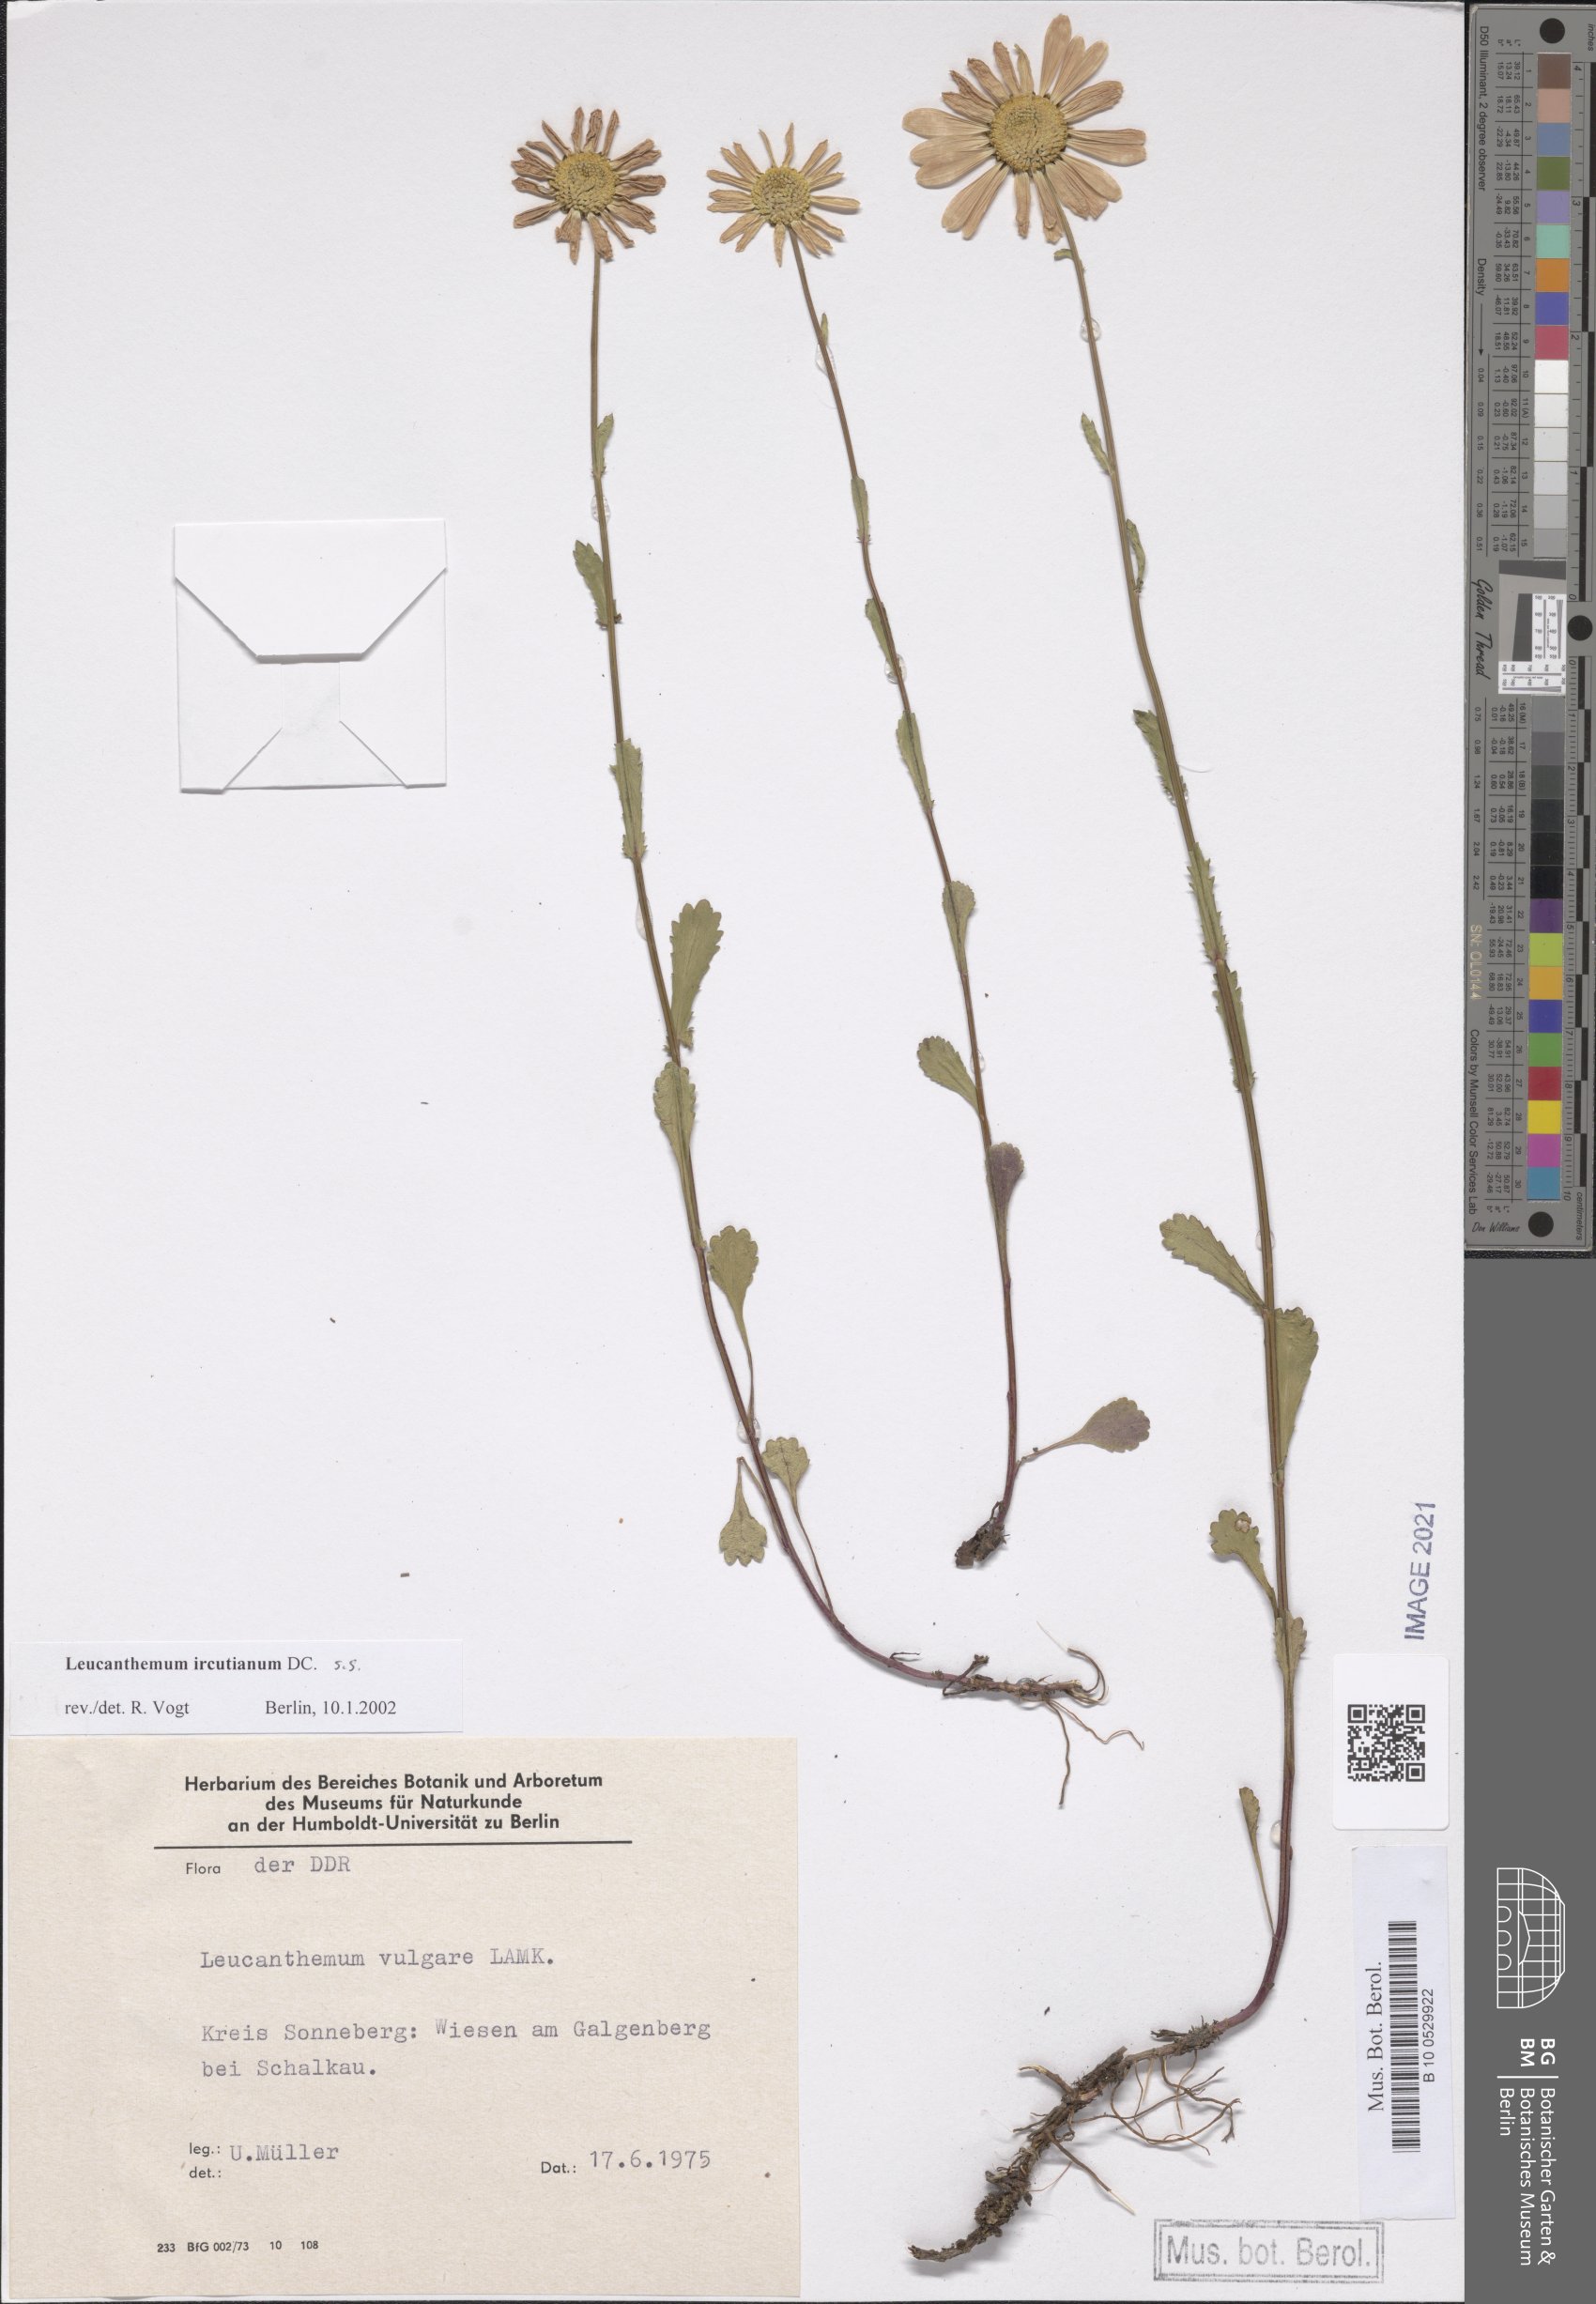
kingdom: Plantae
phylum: Tracheophyta
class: Magnoliopsida
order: Asterales
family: Asteraceae
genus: Leucanthemum
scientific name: Leucanthemum ircutianum
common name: Daisy
